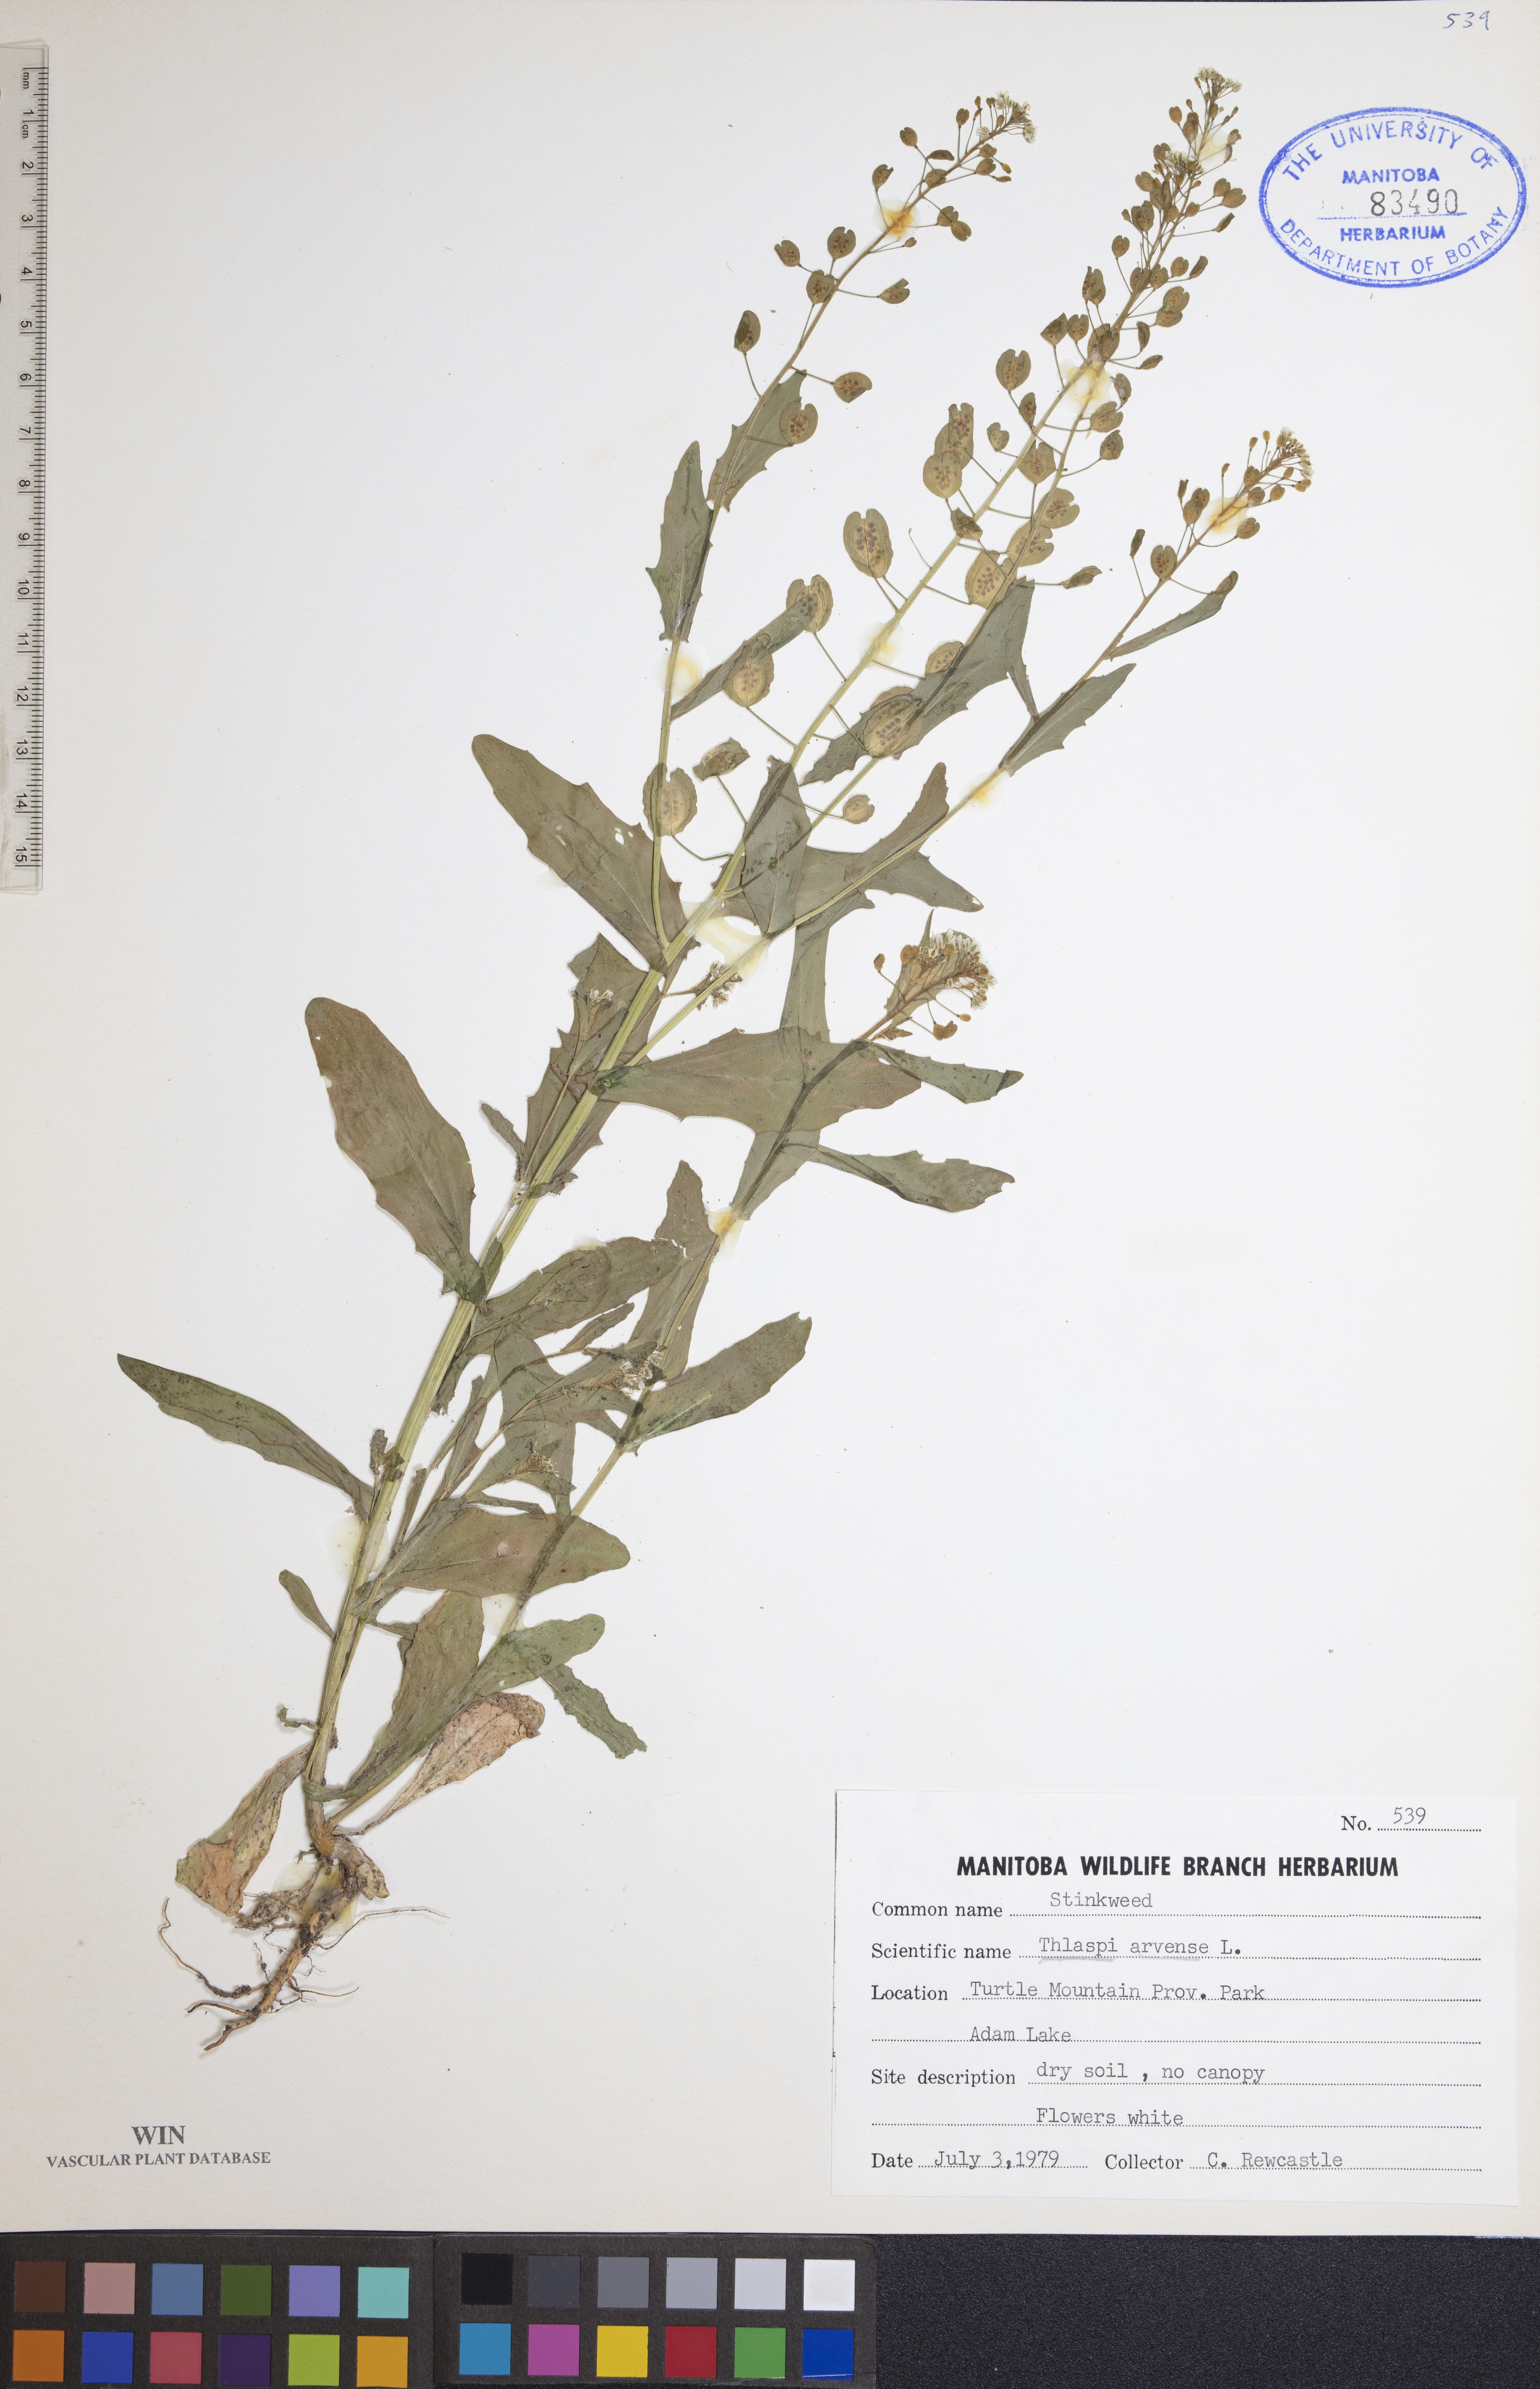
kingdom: Plantae
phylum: Tracheophyta
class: Magnoliopsida
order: Brassicales
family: Brassicaceae
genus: Thlaspi
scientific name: Thlaspi arvense
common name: Field pennycress
